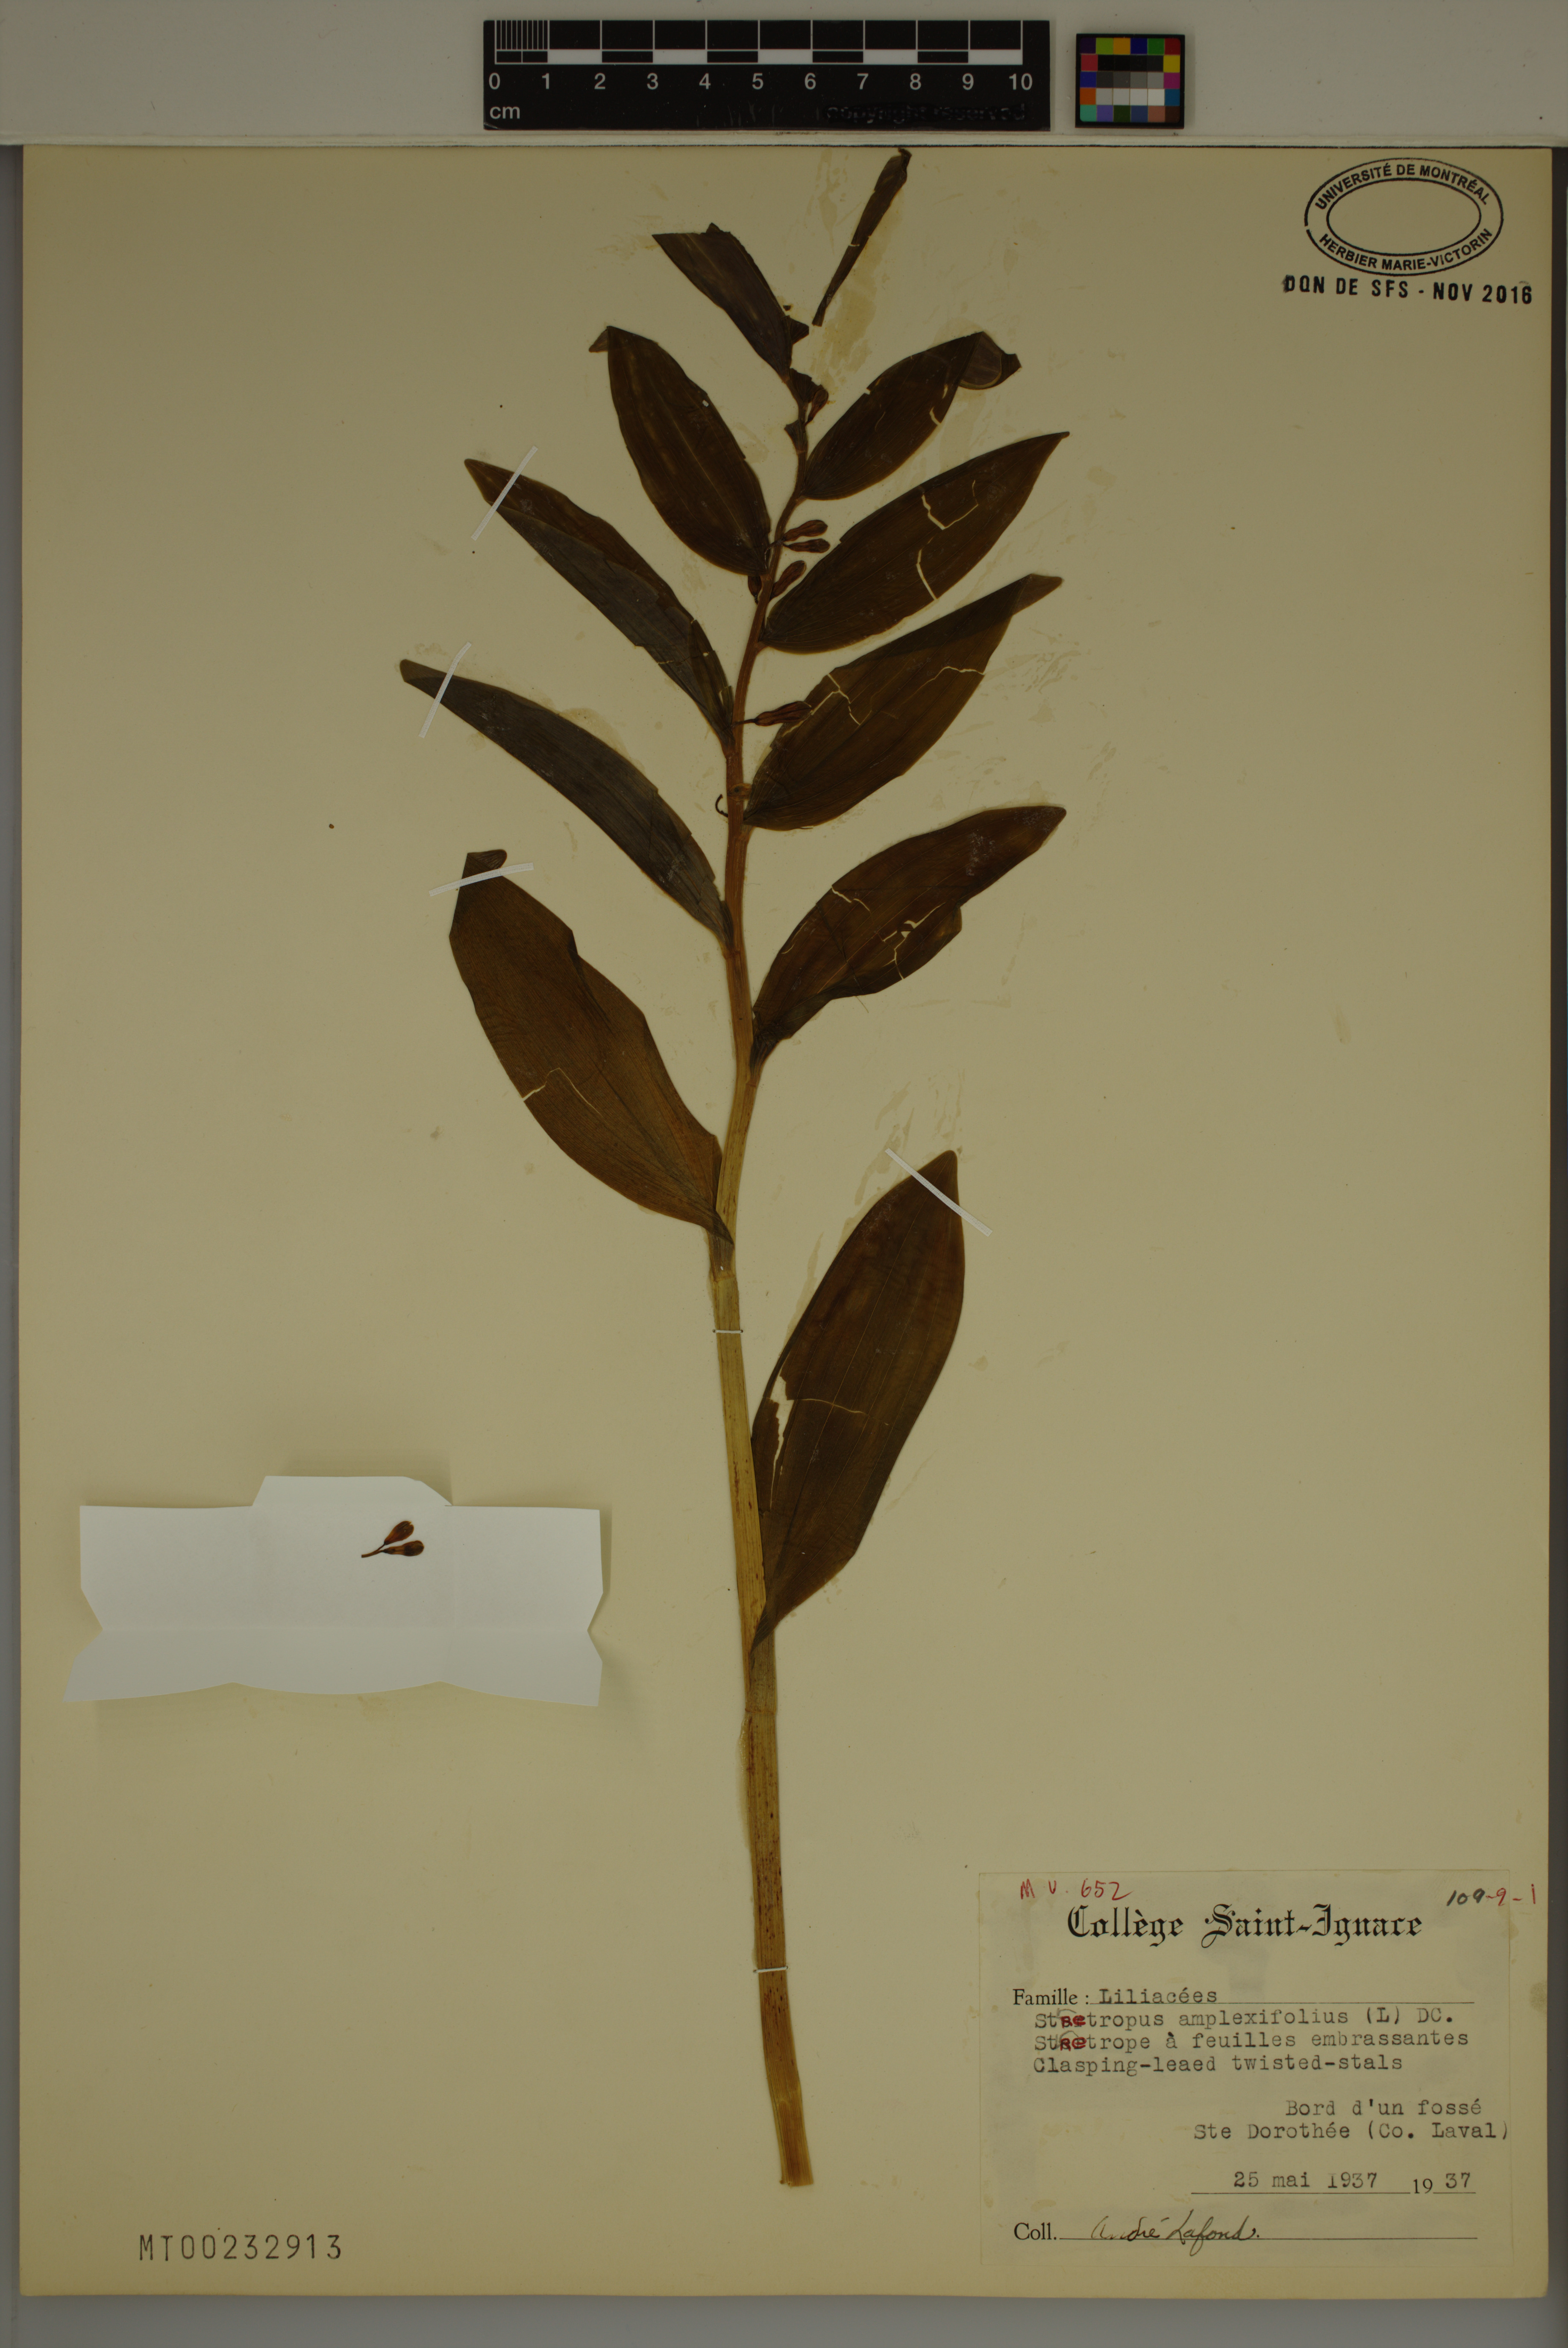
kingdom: Plantae
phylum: Tracheophyta
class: Liliopsida
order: Liliales
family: Liliaceae
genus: Streptopus
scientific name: Streptopus amplexifolius
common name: Clasp twisted stalk
